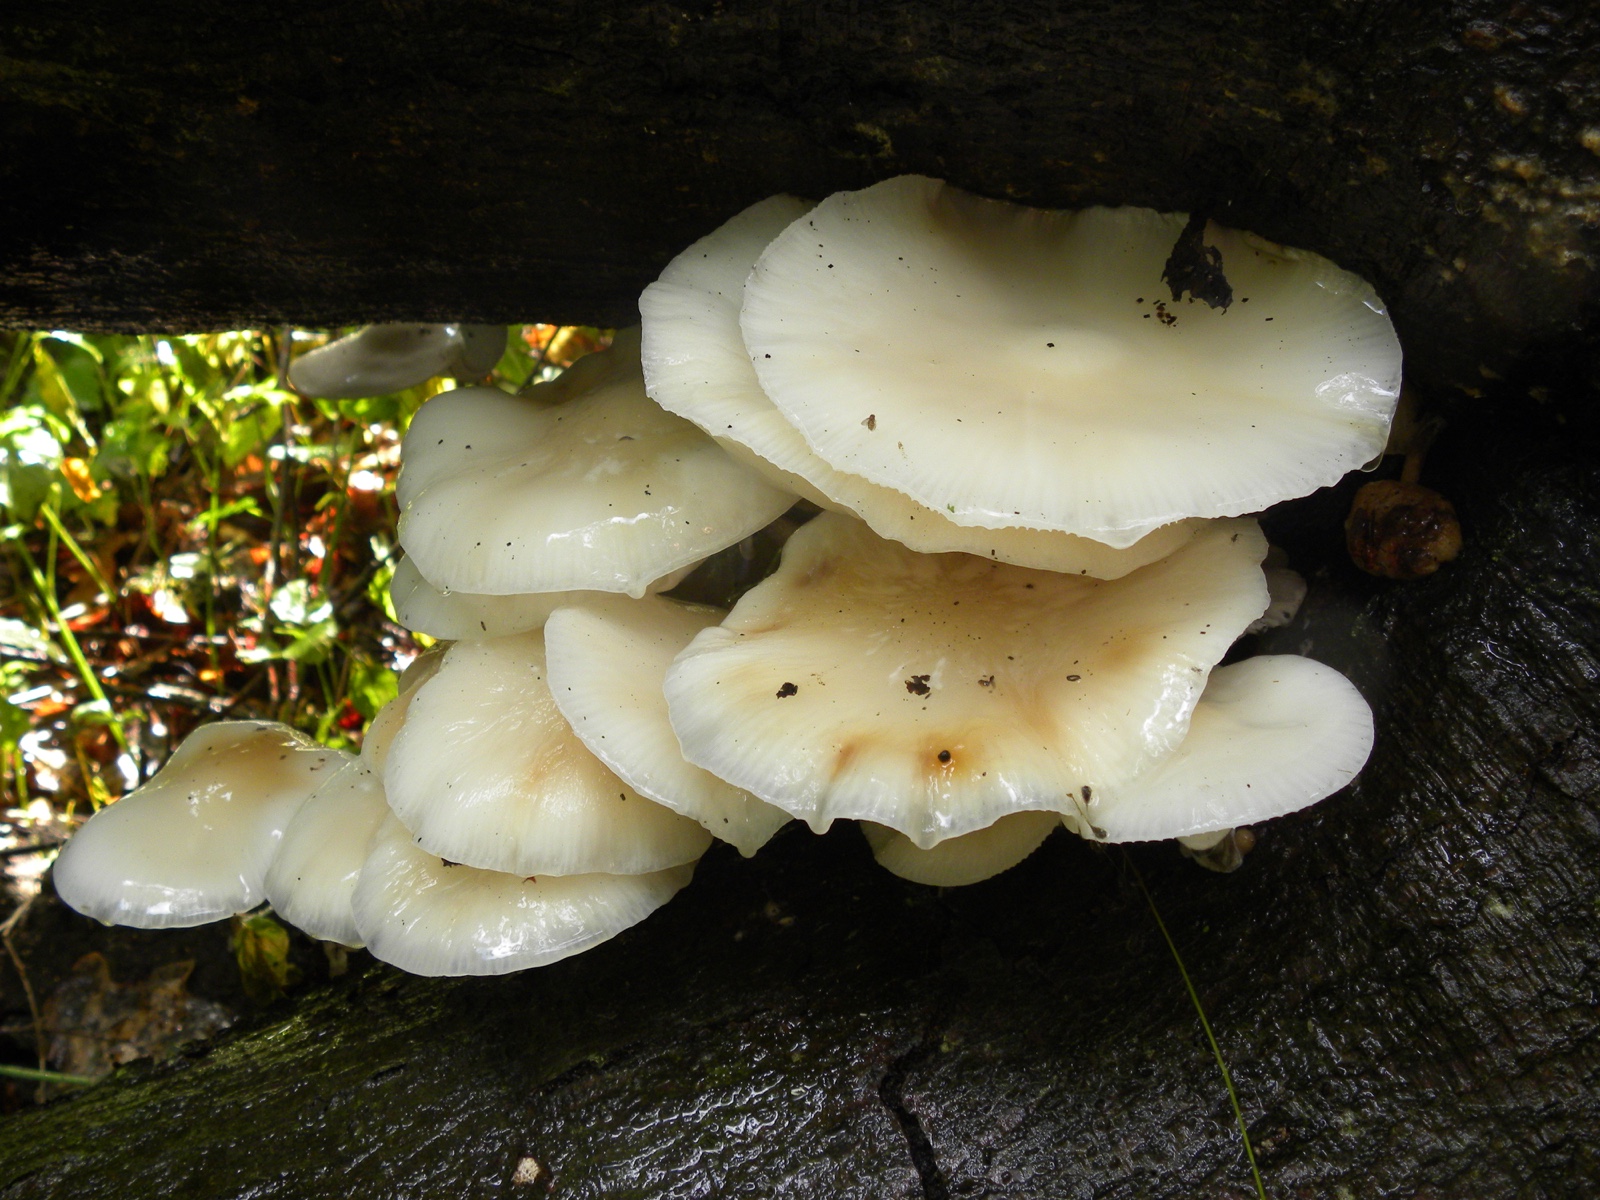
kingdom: Fungi
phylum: Basidiomycota
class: Agaricomycetes
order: Agaricales
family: Physalacriaceae
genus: Mucidula
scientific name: Mucidula mucida
